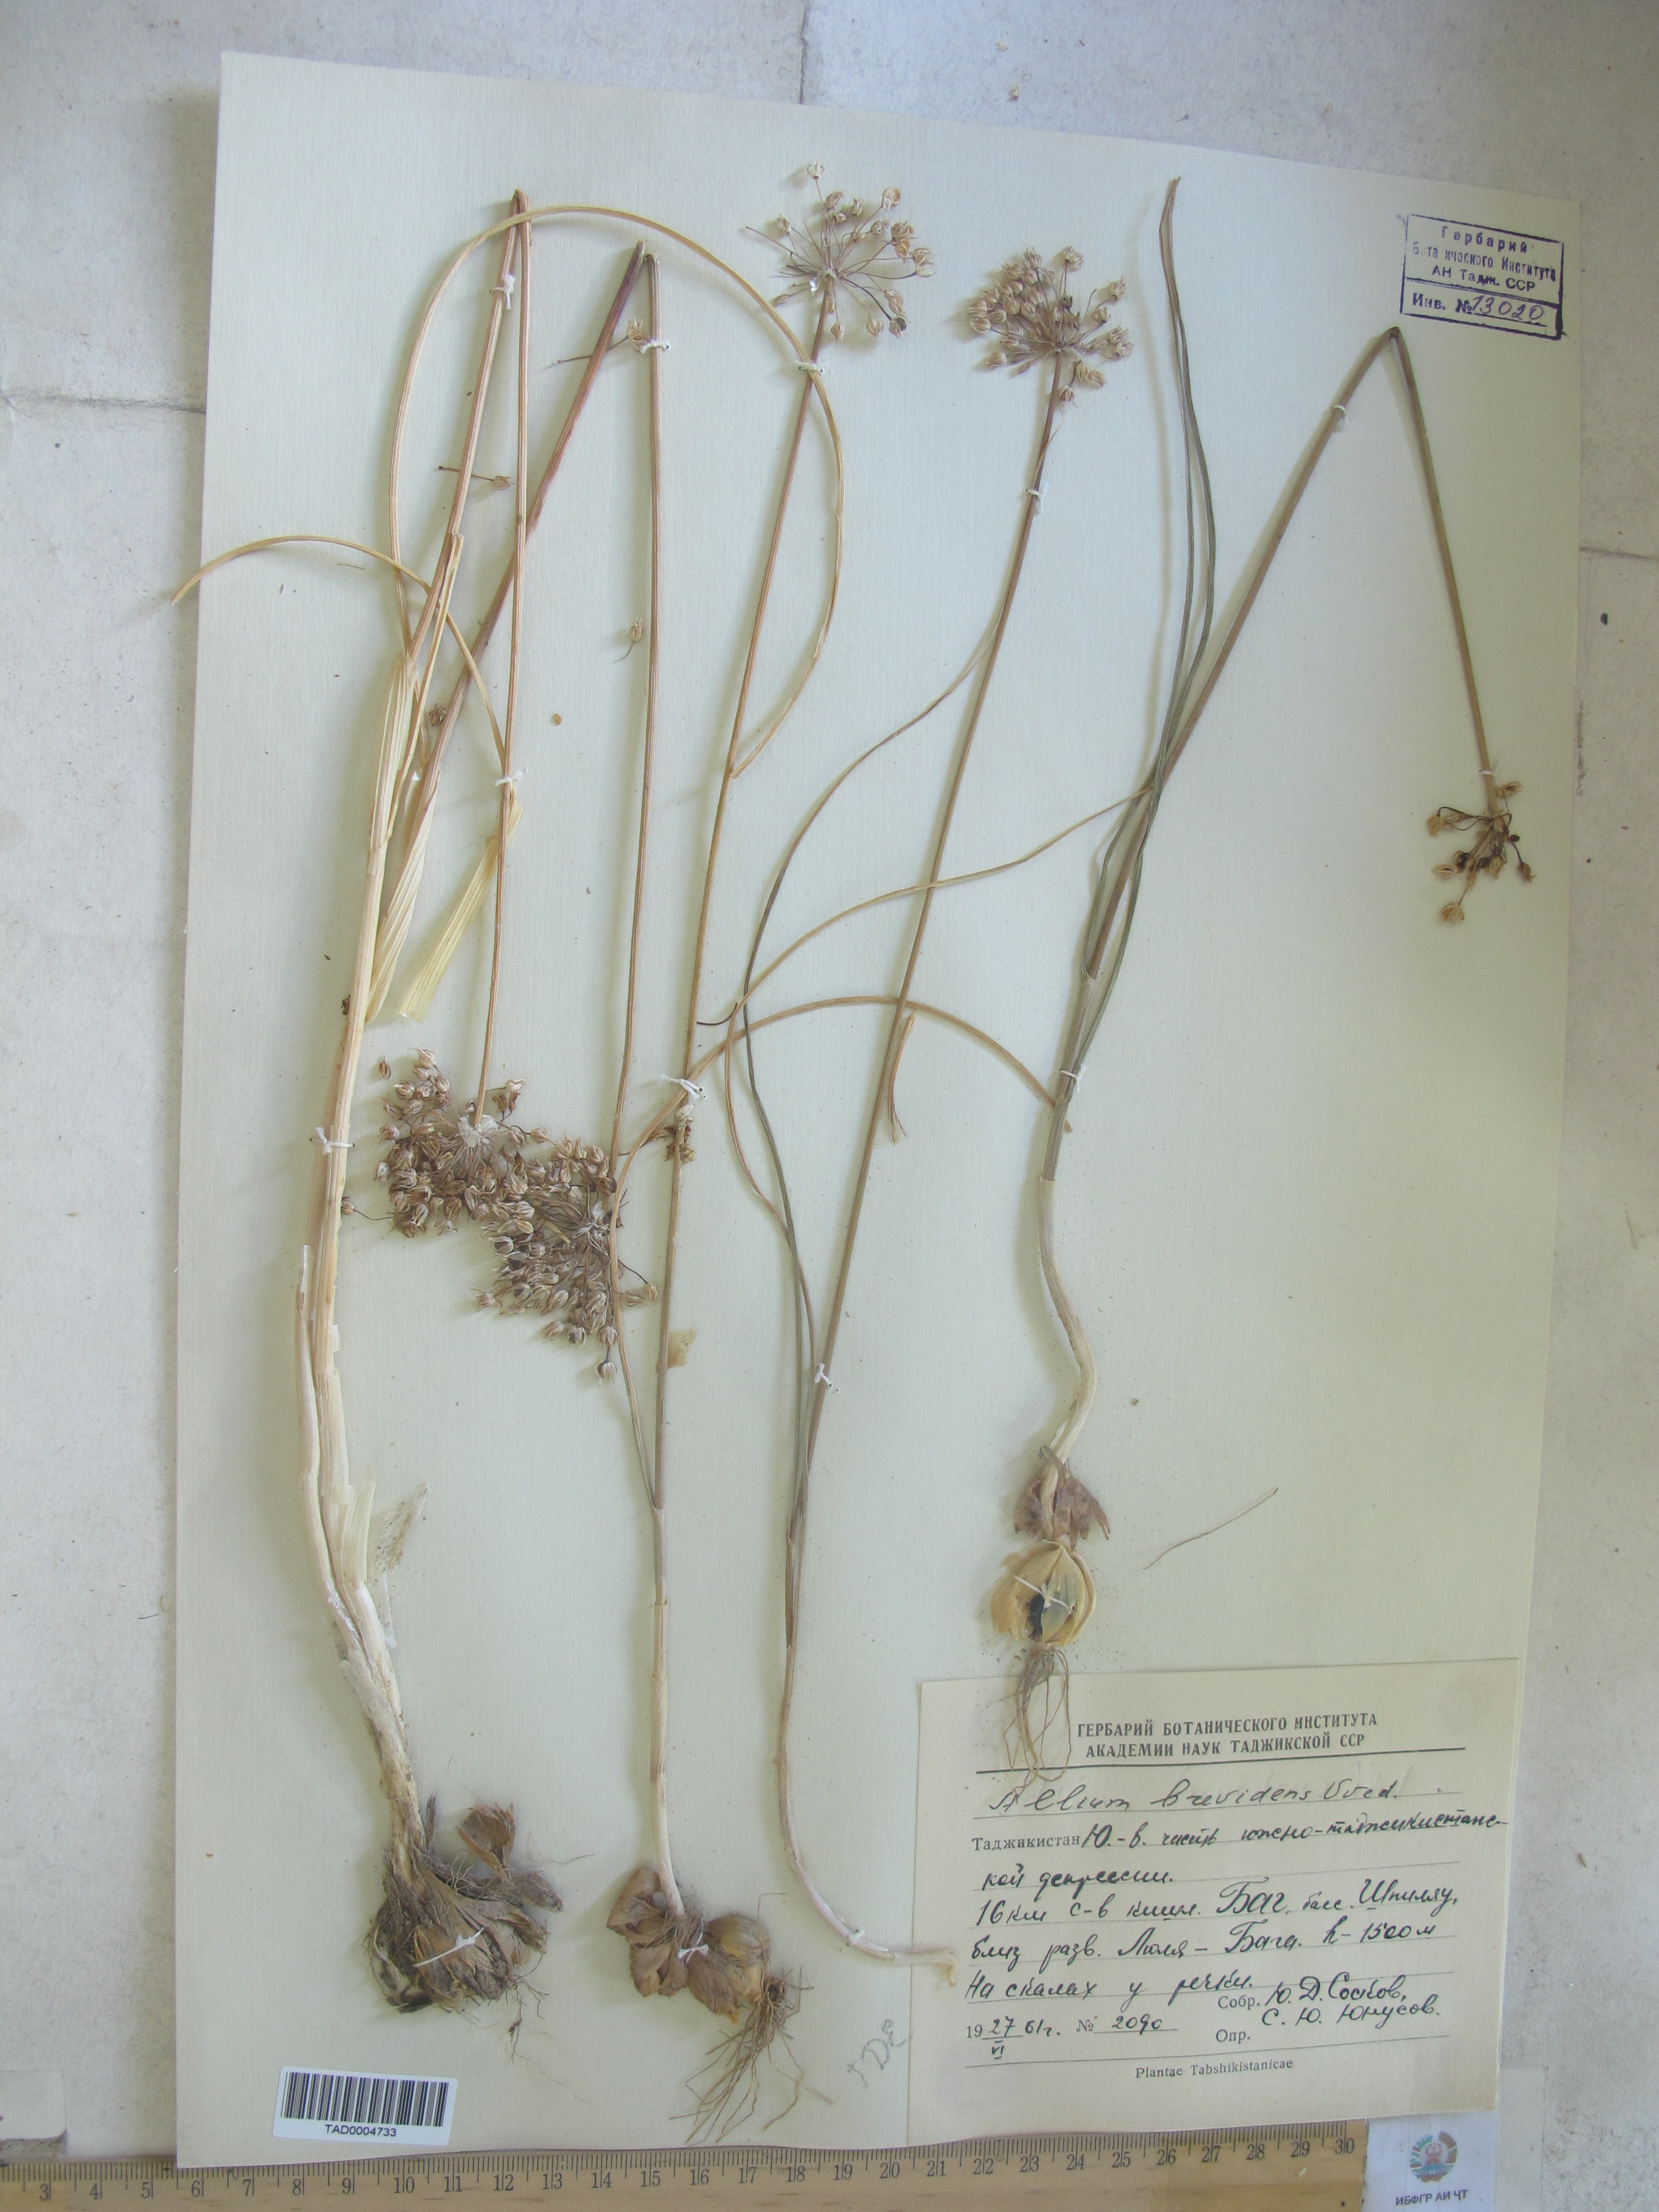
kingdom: Plantae
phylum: Tracheophyta
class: Liliopsida
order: Asparagales
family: Amaryllidaceae
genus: Allium
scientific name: Allium brevidens
